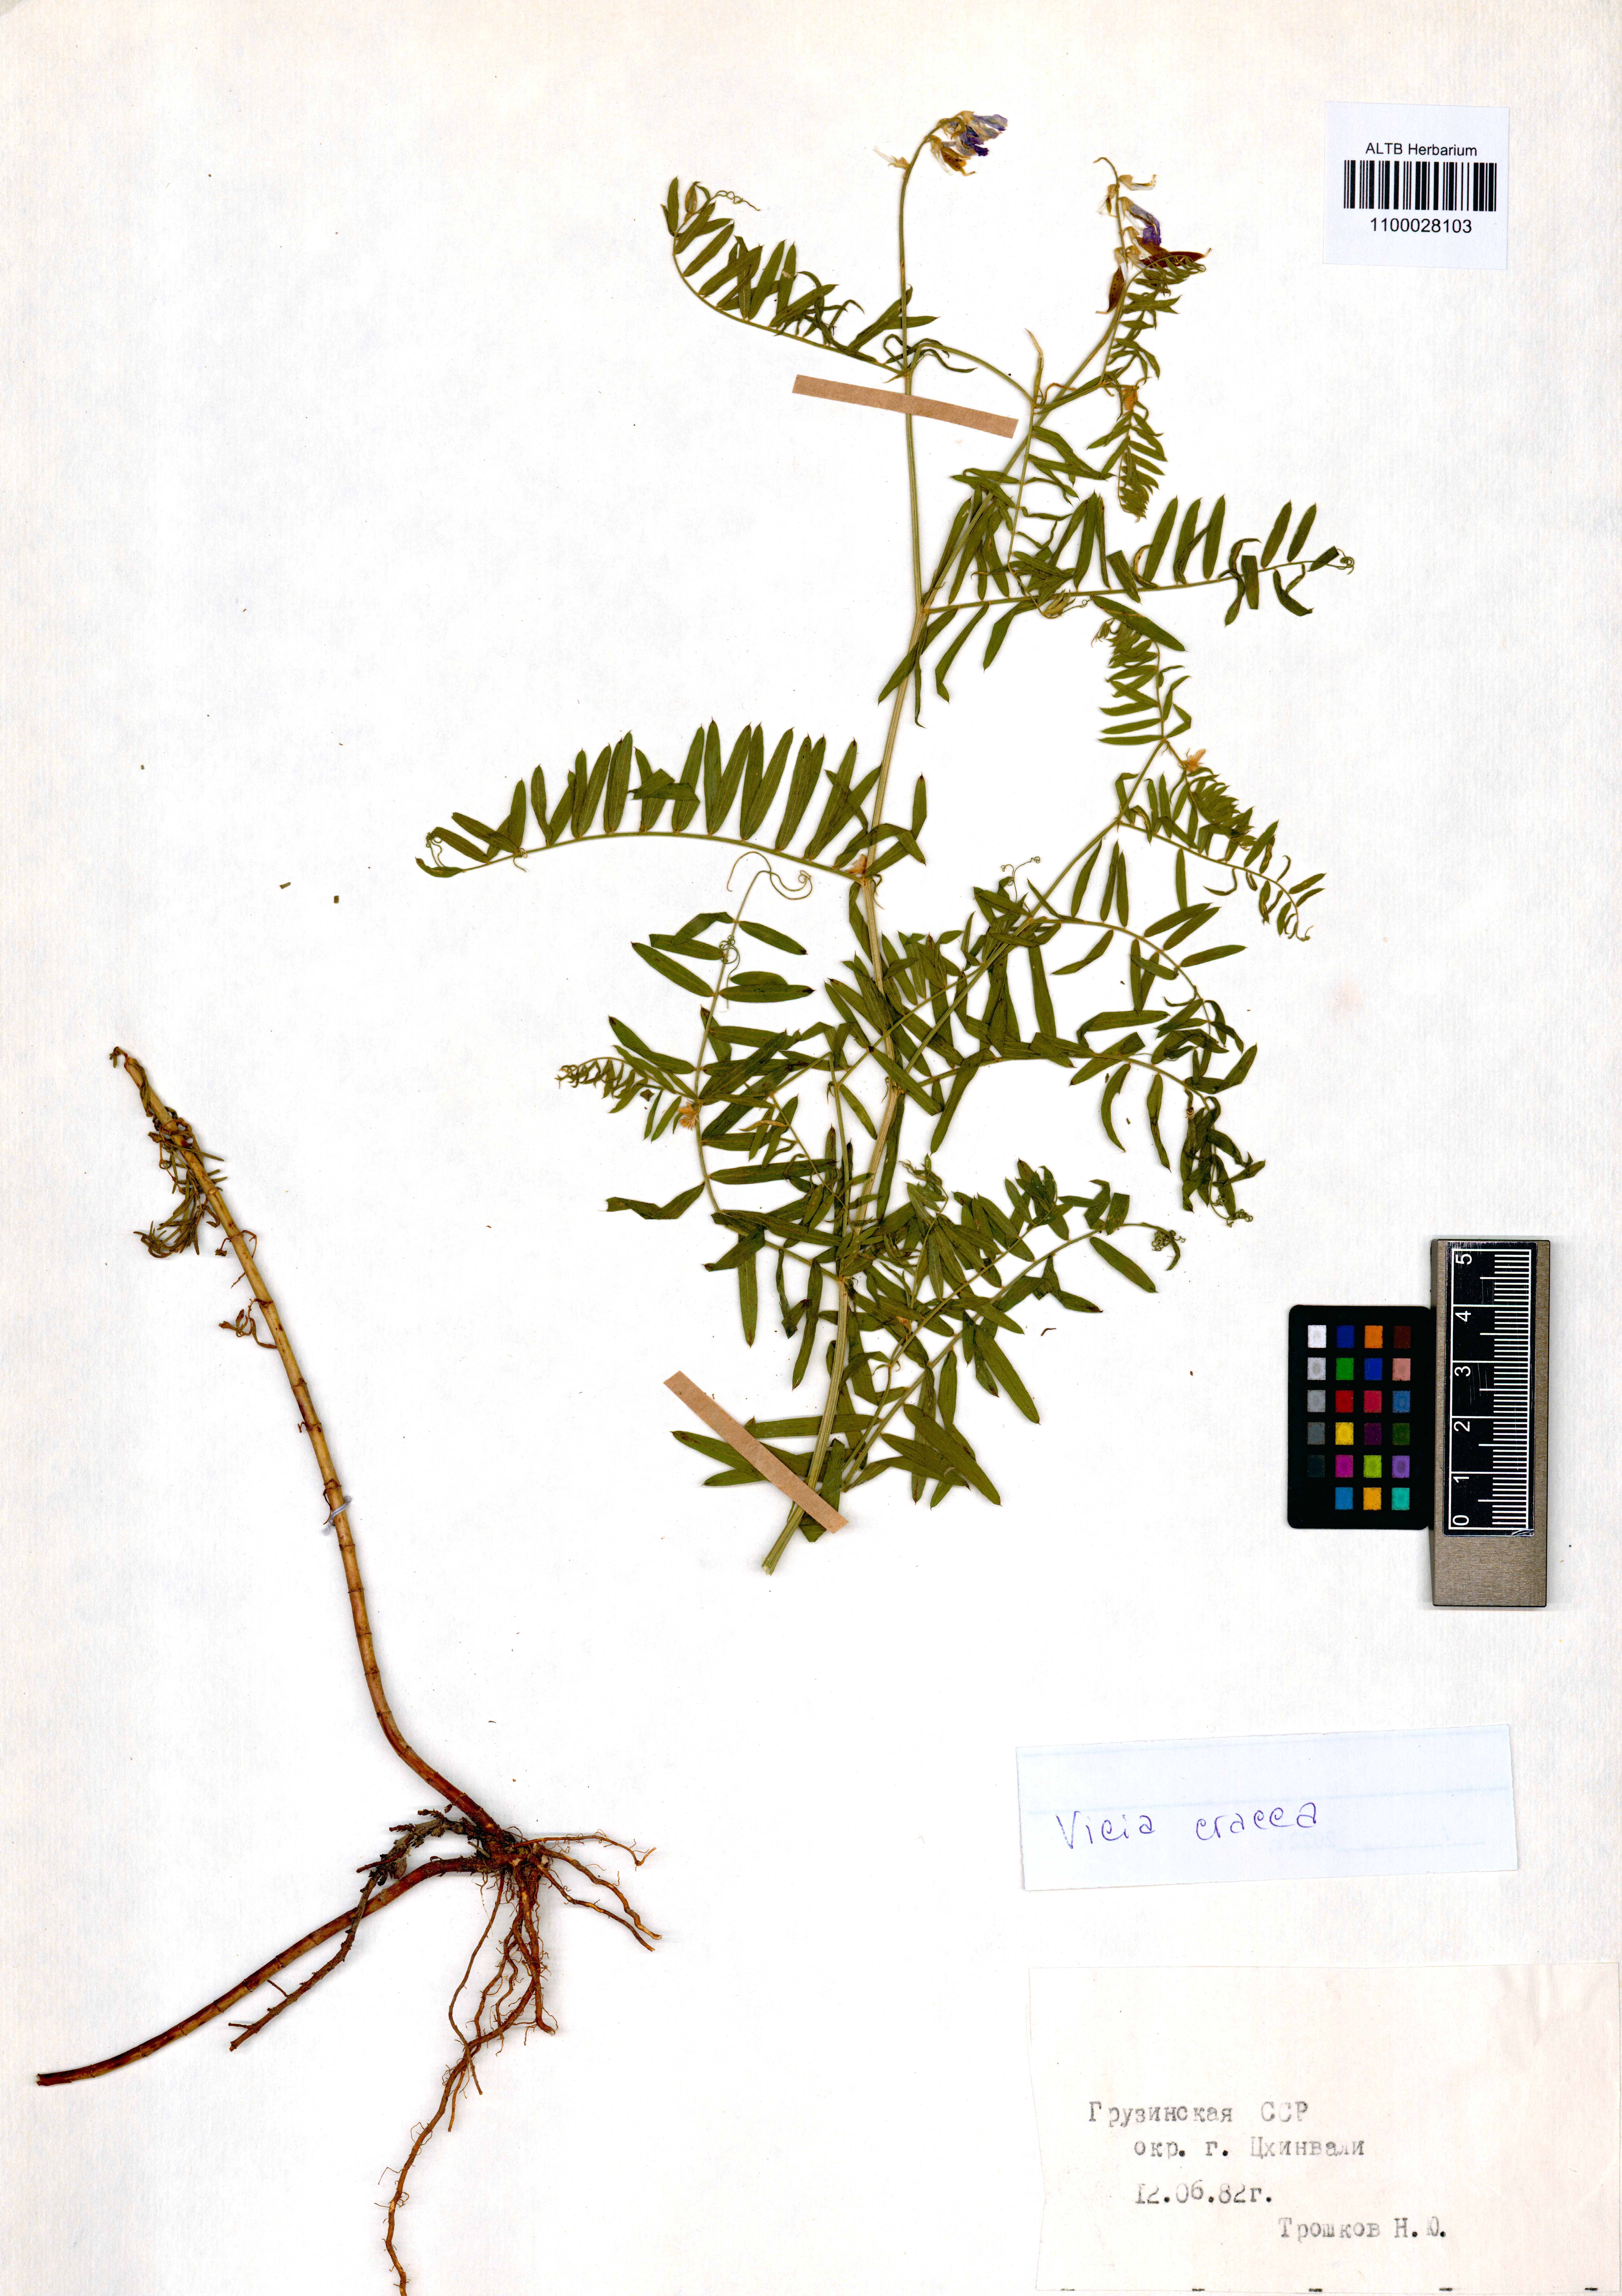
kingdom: Plantae
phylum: Tracheophyta
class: Magnoliopsida
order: Fabales
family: Fabaceae
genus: Vicia
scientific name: Vicia cracca
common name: Bird vetch
